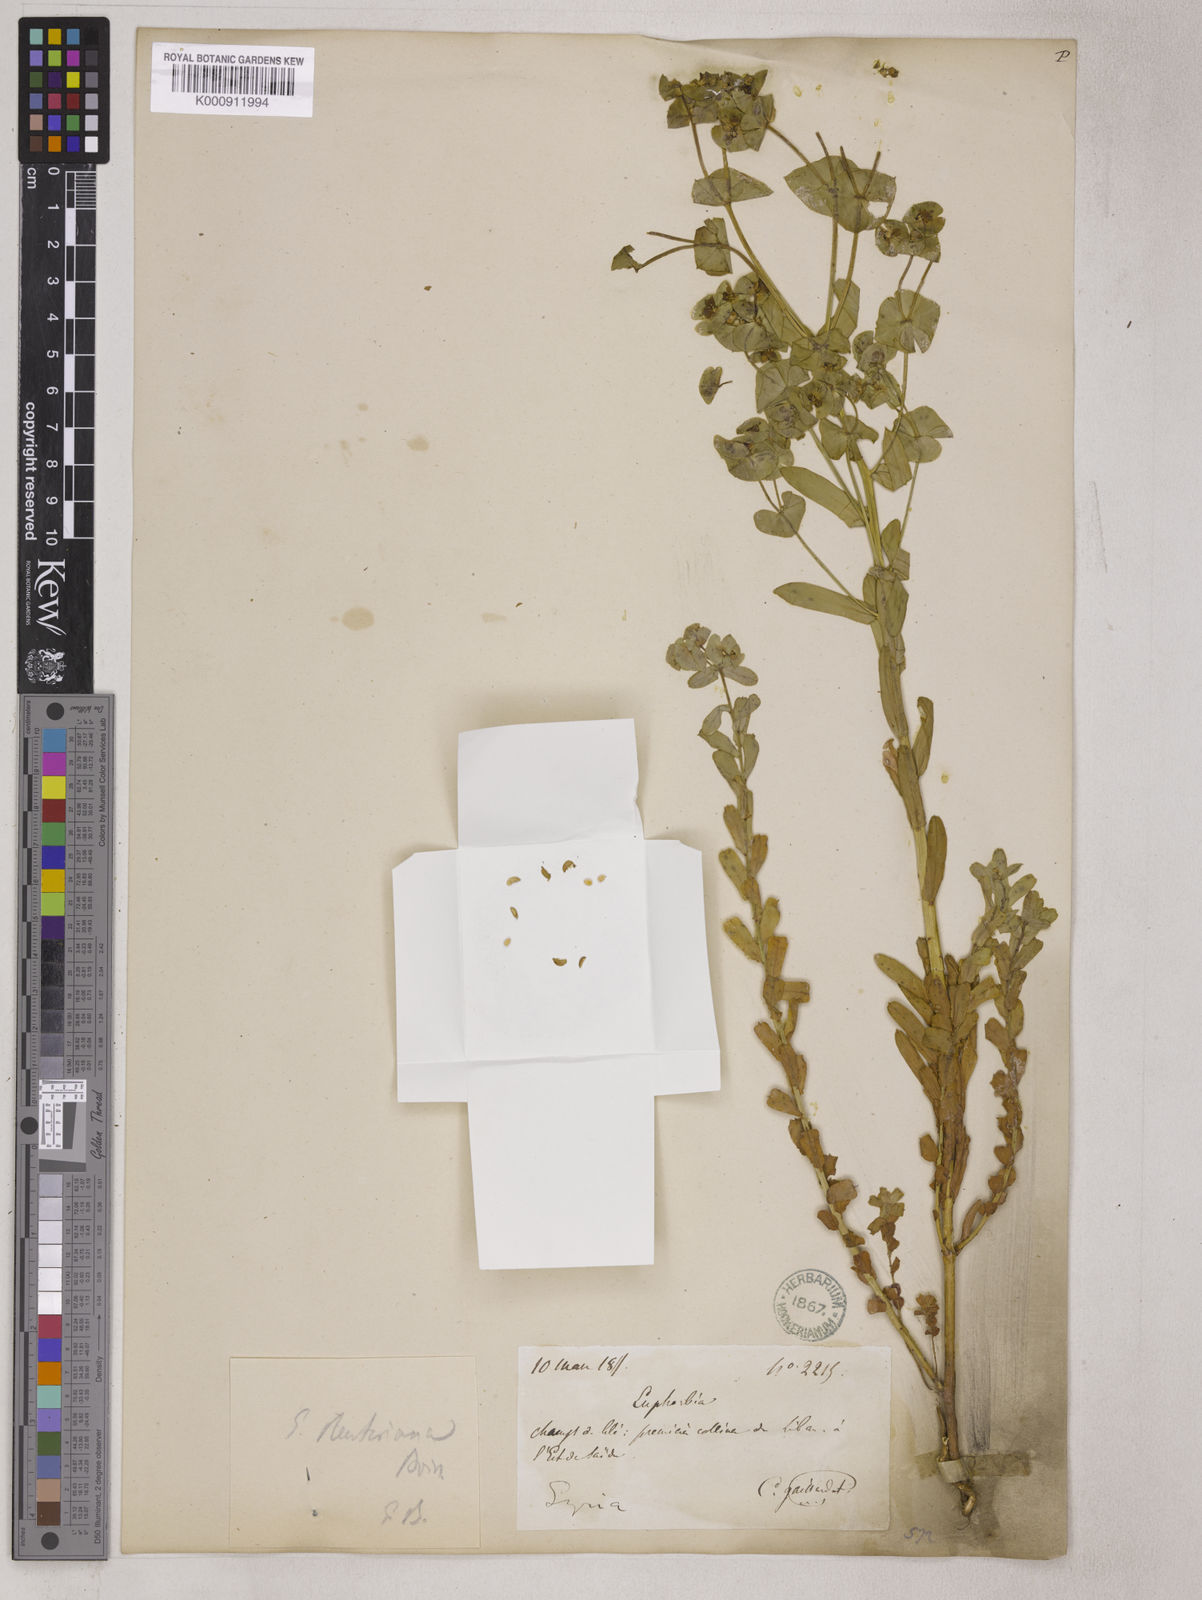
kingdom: Plantae
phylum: Tracheophyta
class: Magnoliopsida
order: Malpighiales
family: Euphorbiaceae
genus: Euphorbia
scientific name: Euphorbia reuteriana
